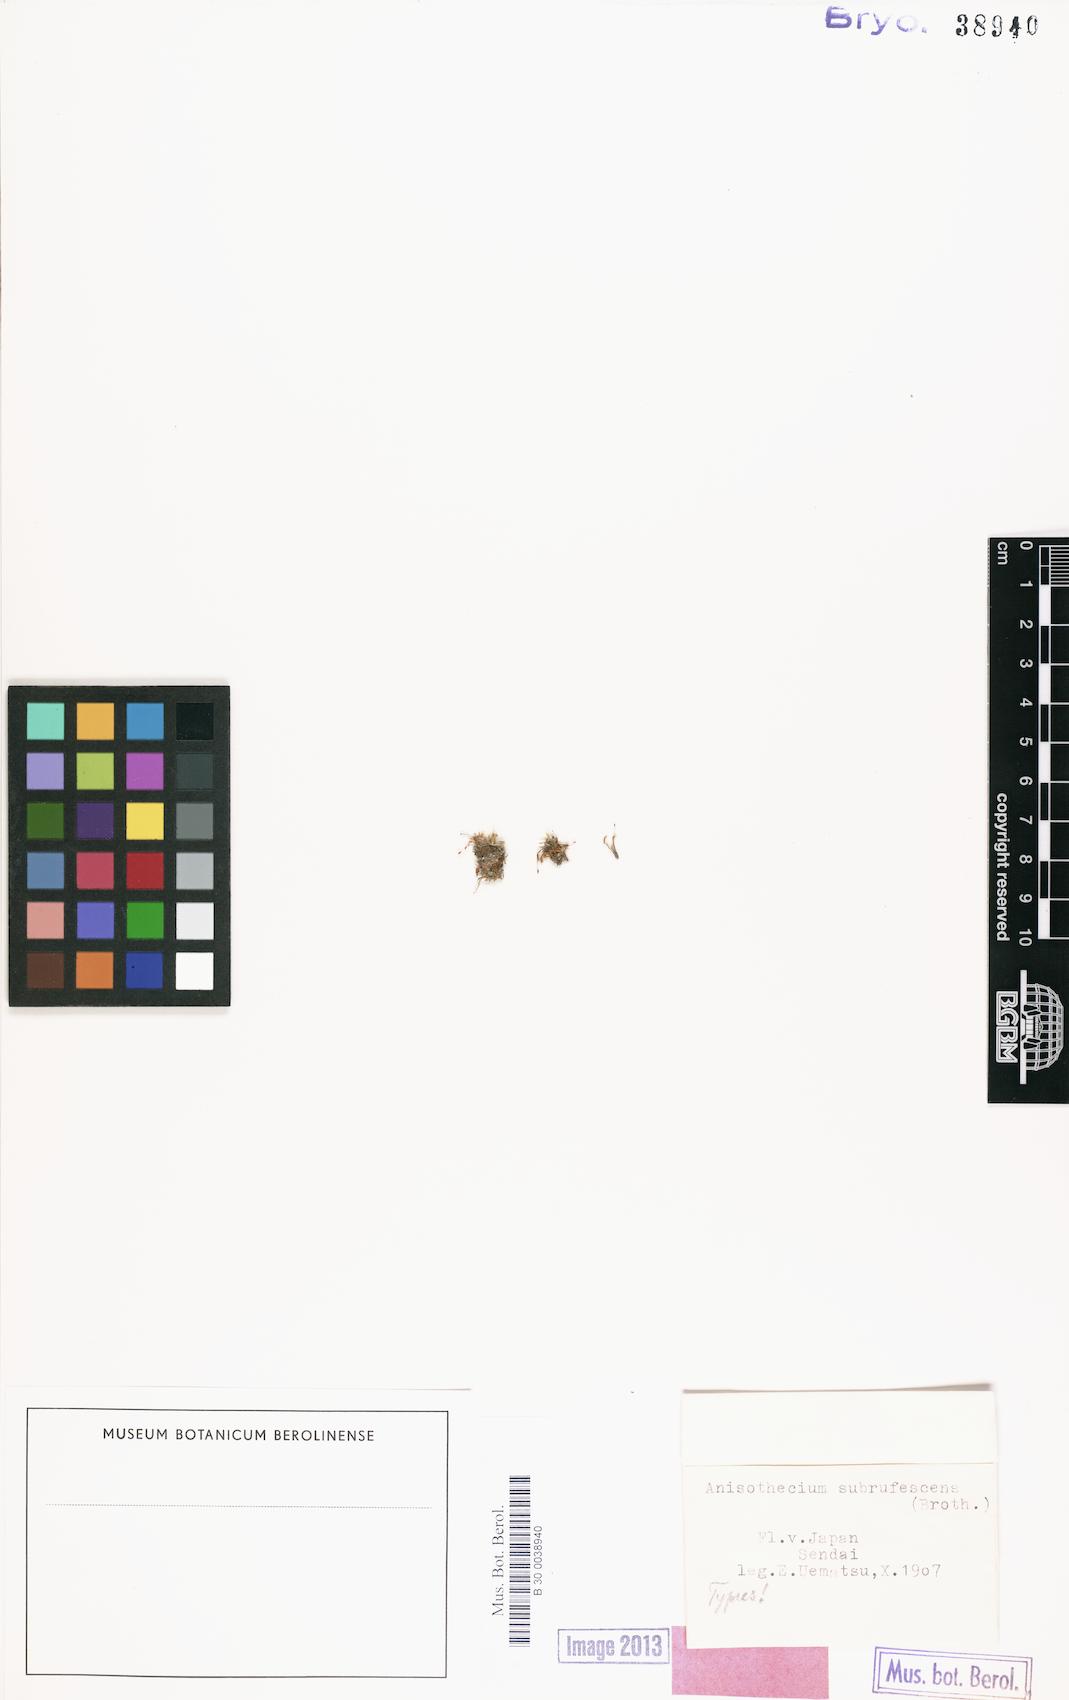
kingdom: Plantae
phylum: Bryophyta
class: Bryopsida
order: Dicranales
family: Dicranellaceae
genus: Anisothecium
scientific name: Anisothecium
